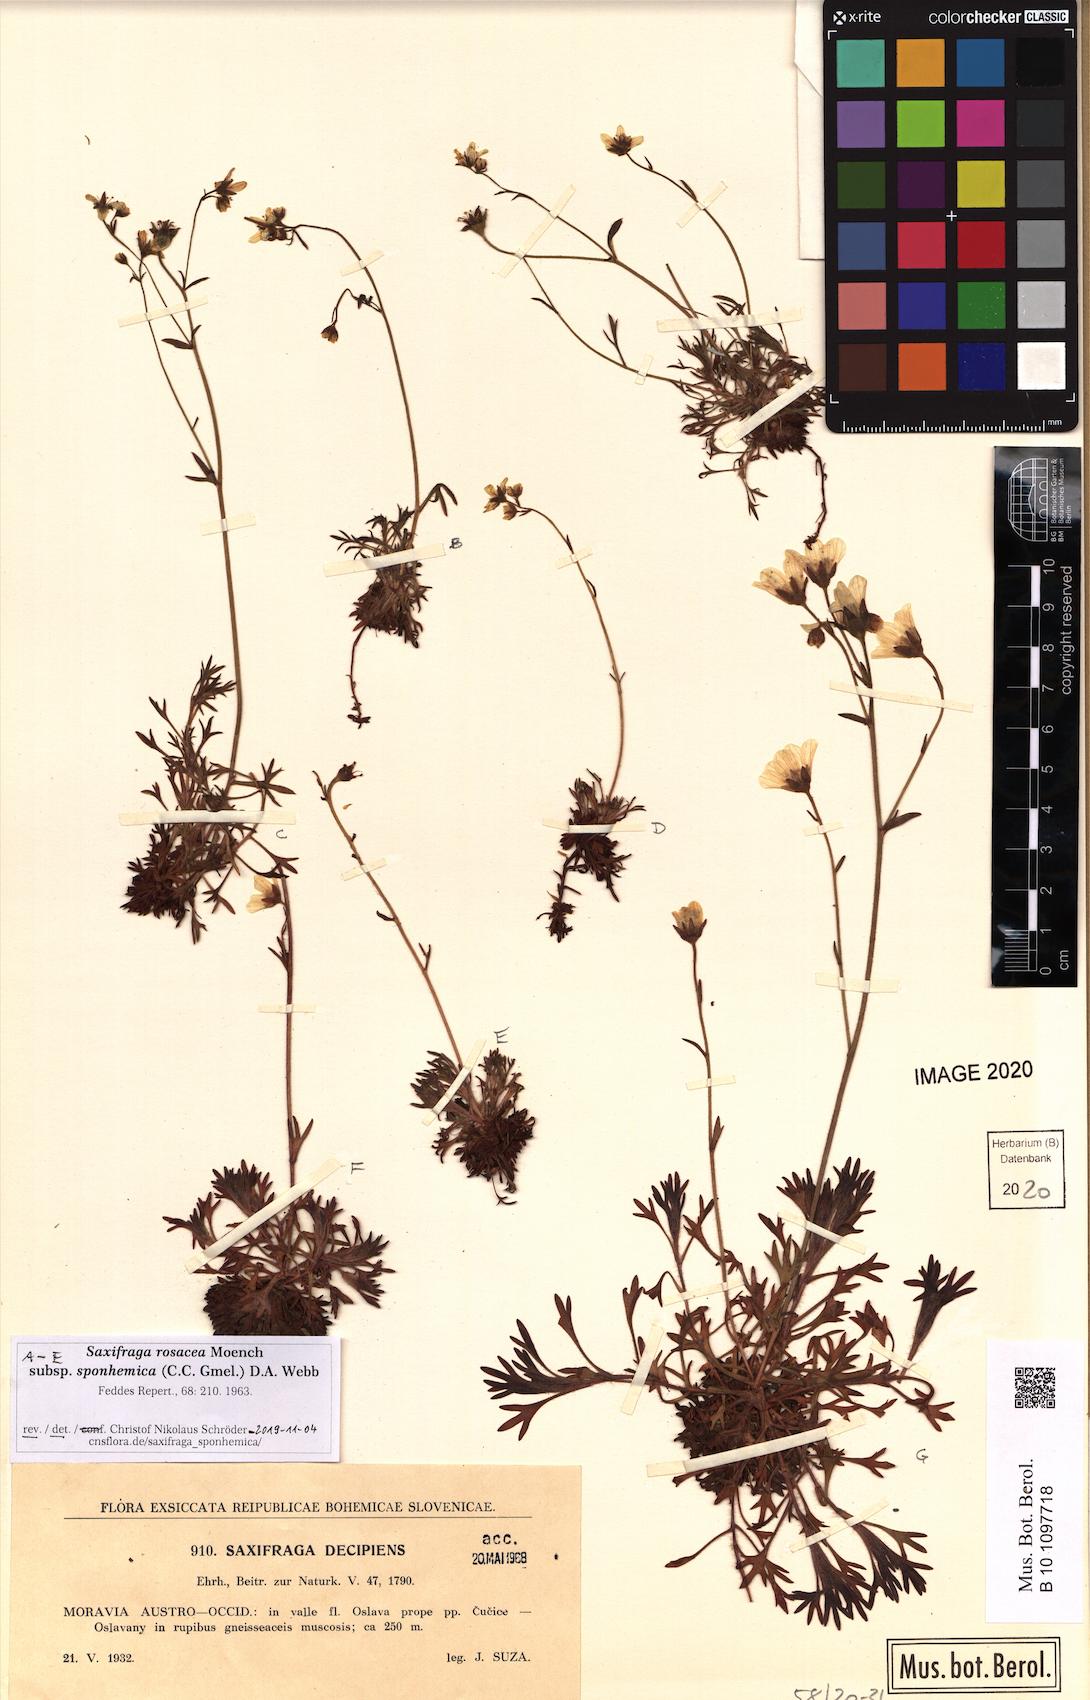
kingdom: Plantae
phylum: Tracheophyta
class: Magnoliopsida
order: Saxifragales
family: Saxifragaceae
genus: Saxifraga
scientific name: Saxifraga rosacea
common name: Irish saxifrage
